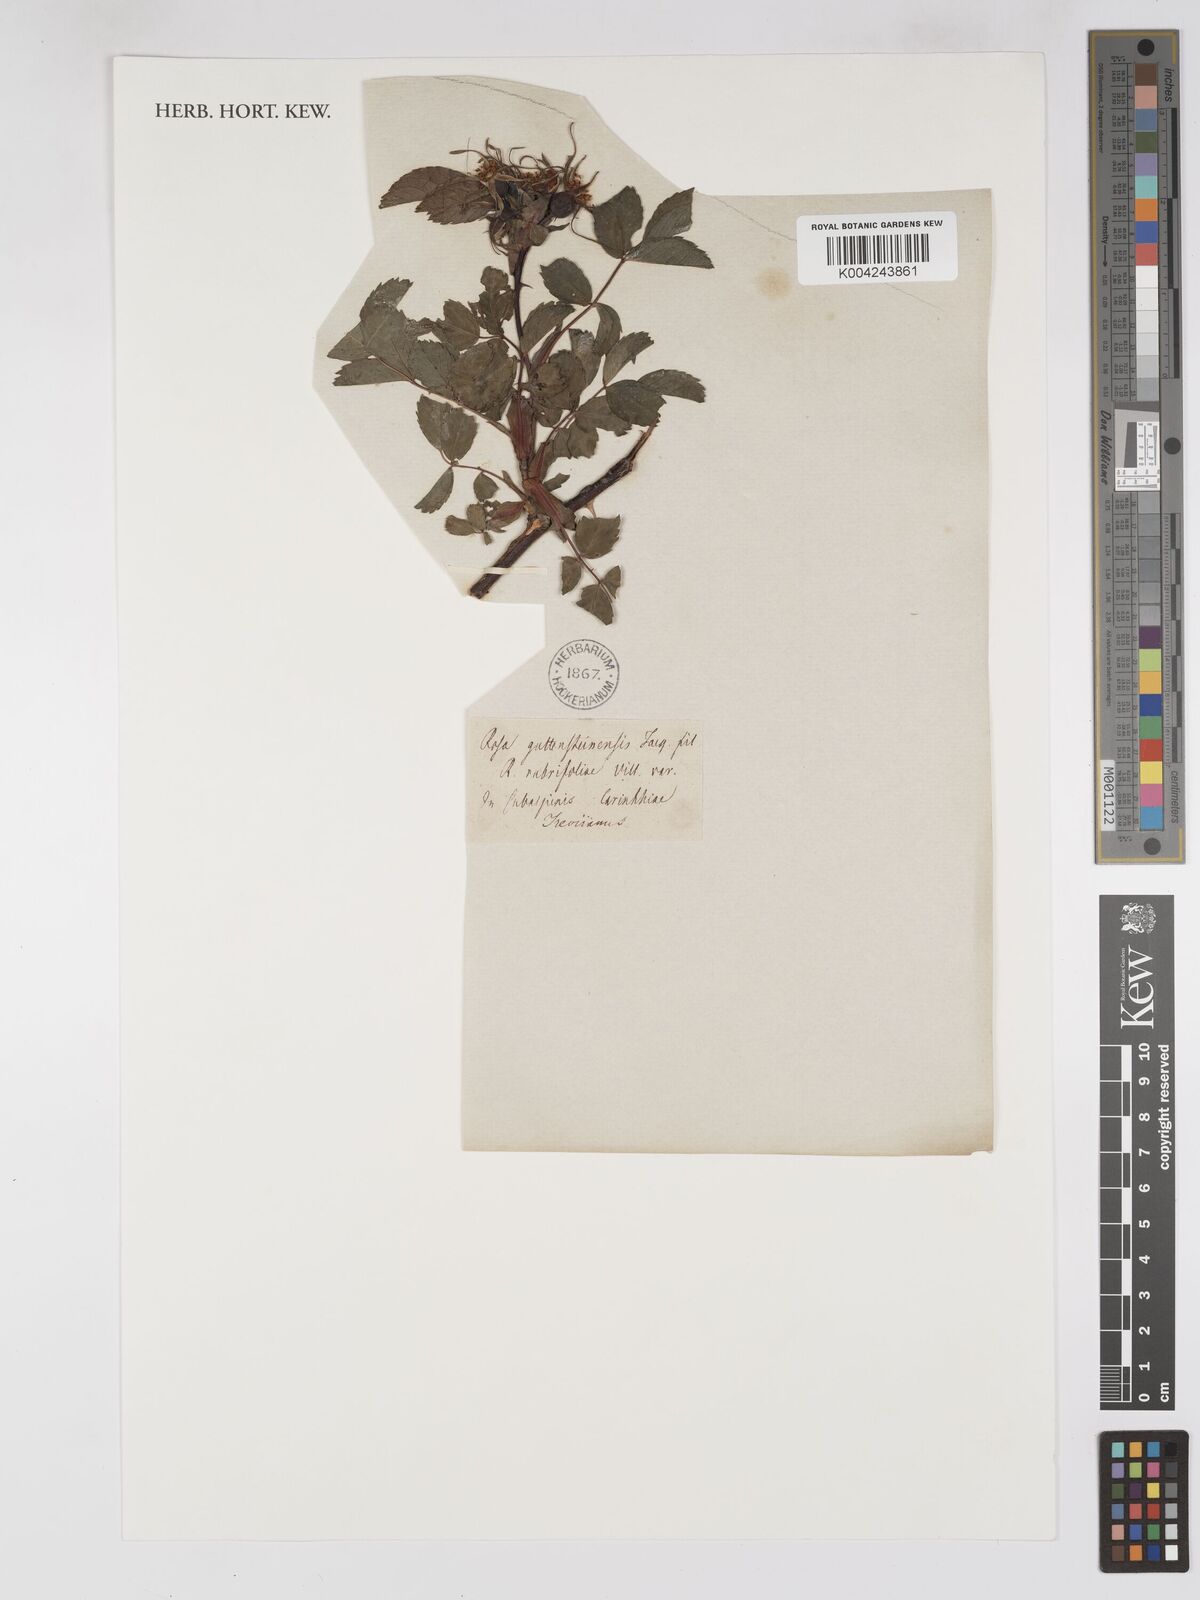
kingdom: Plantae
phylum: Tracheophyta
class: Magnoliopsida
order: Rosales
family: Rosaceae
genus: Rosa
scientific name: Rosa montana
